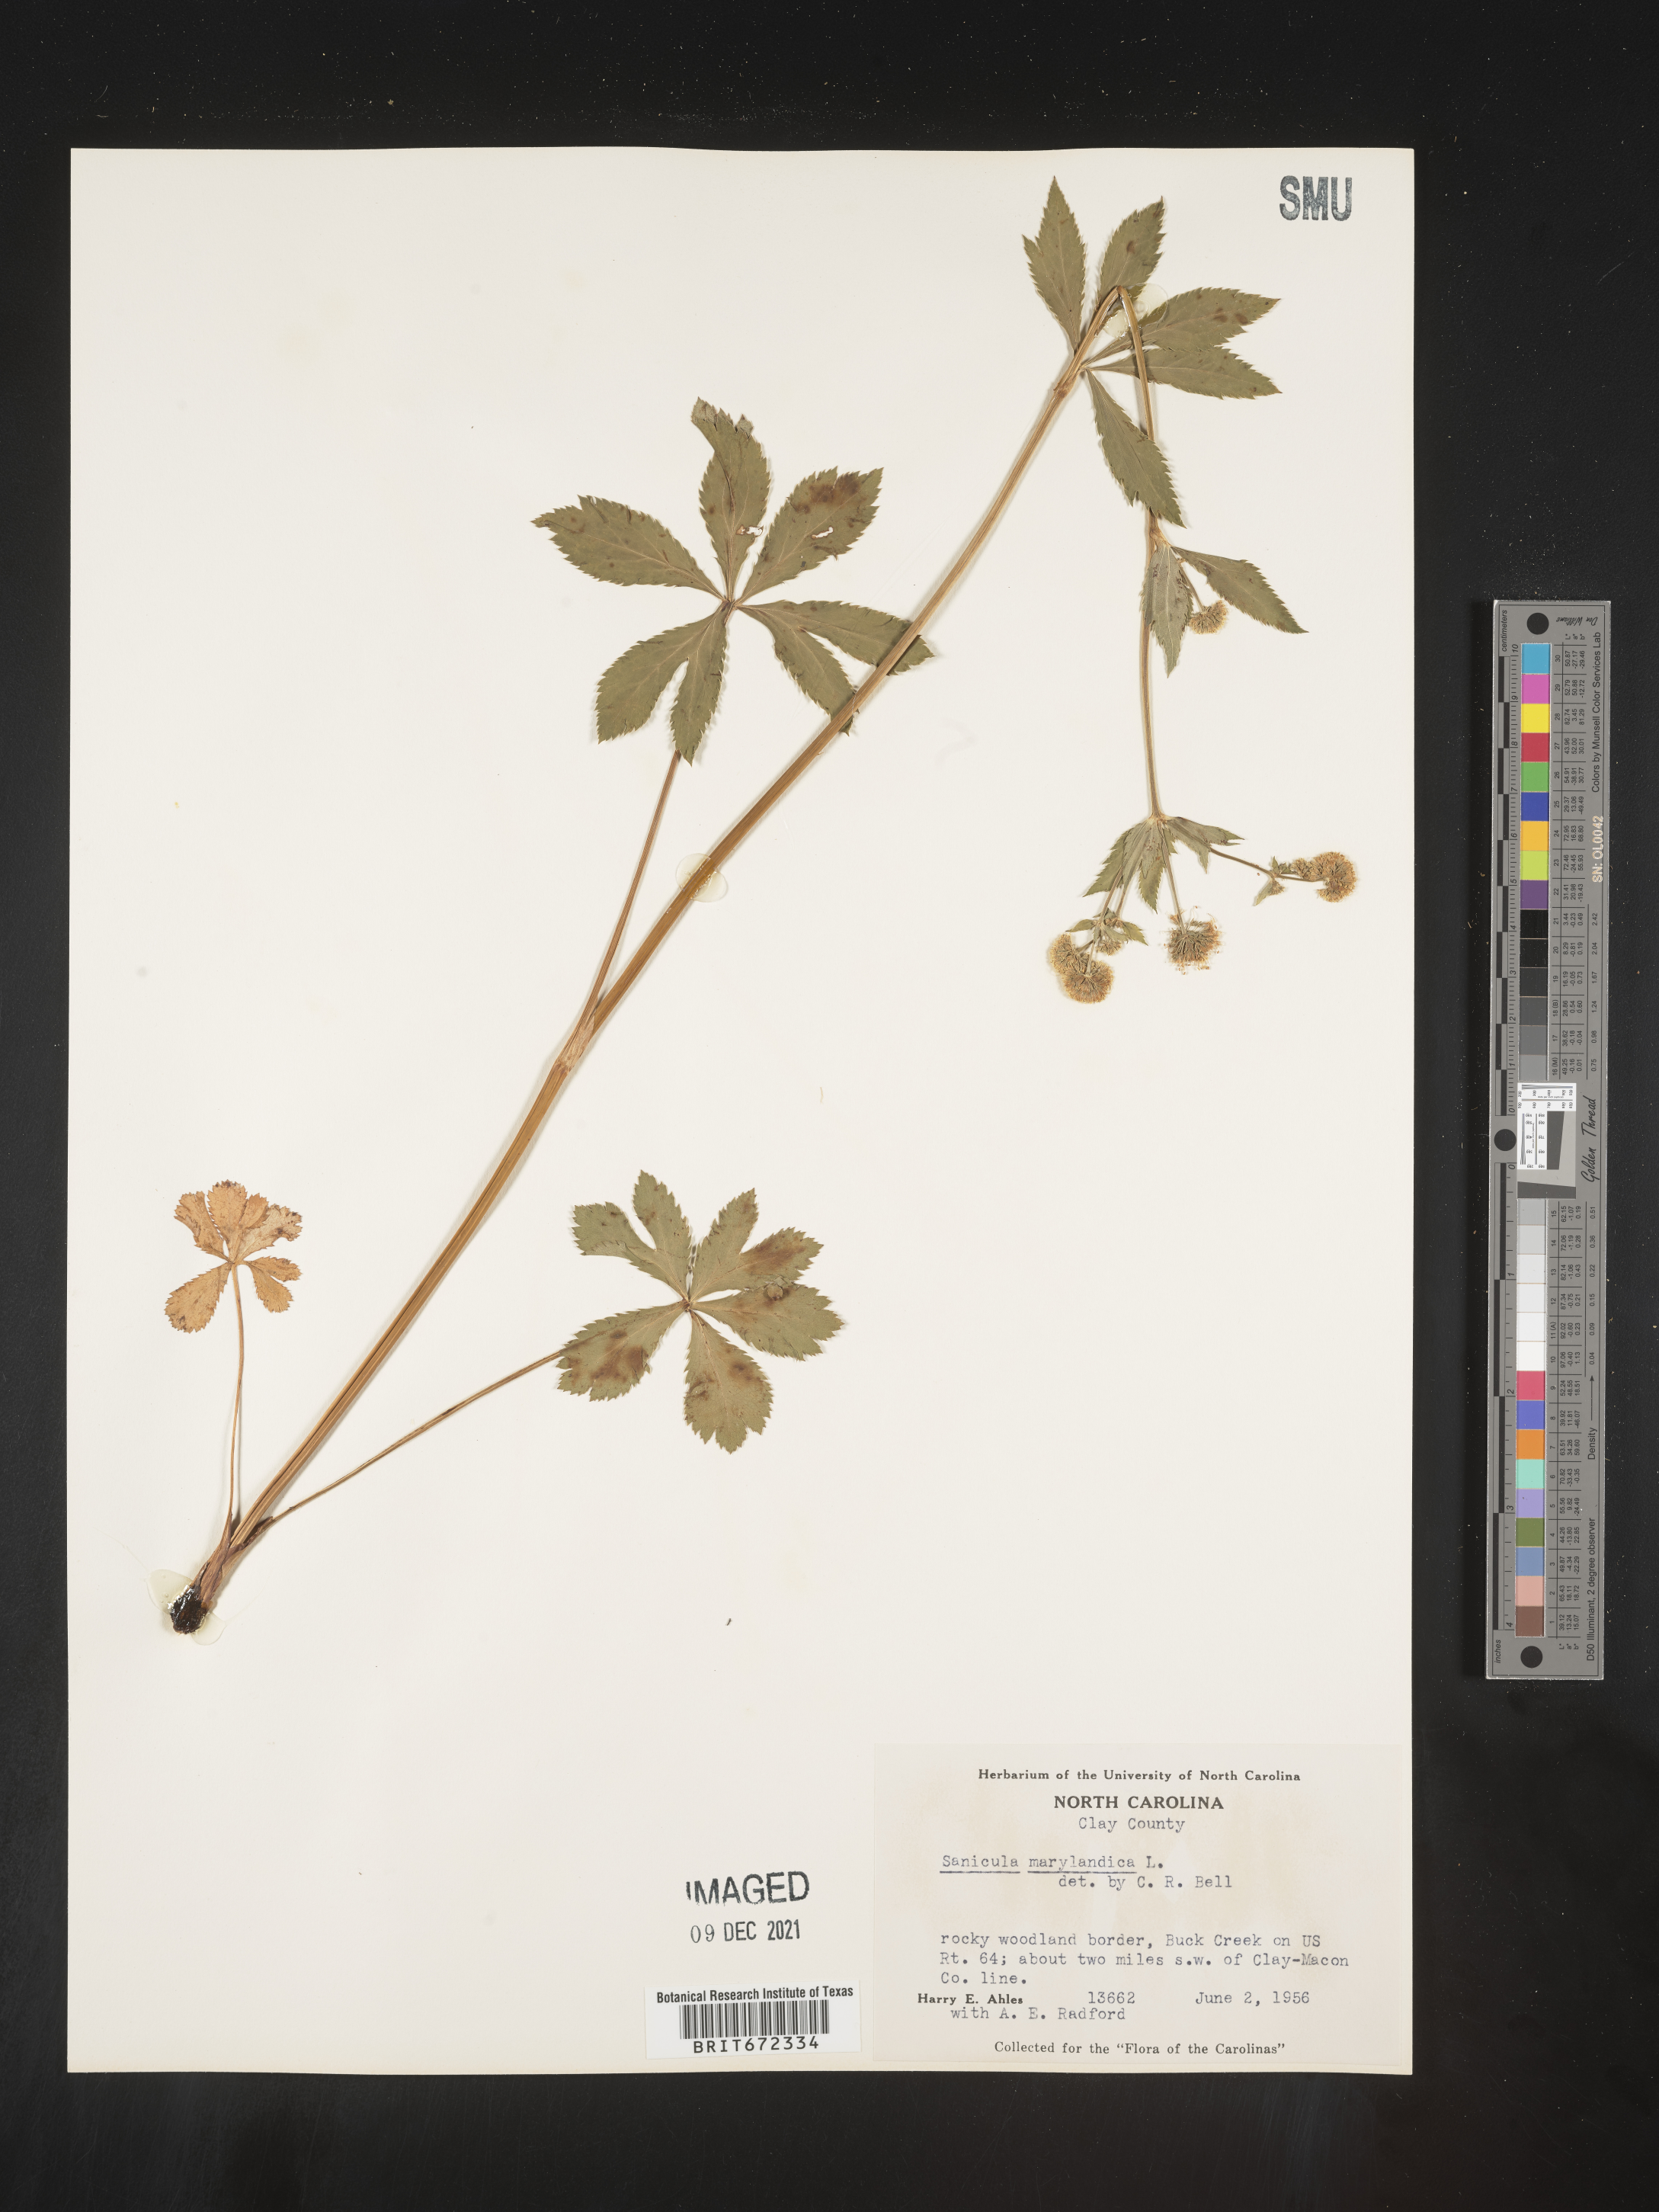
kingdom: Plantae
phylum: Tracheophyta
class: Magnoliopsida
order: Apiales
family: Apiaceae
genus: Sanicula
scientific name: Sanicula marilandica
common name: Black snakeroot
